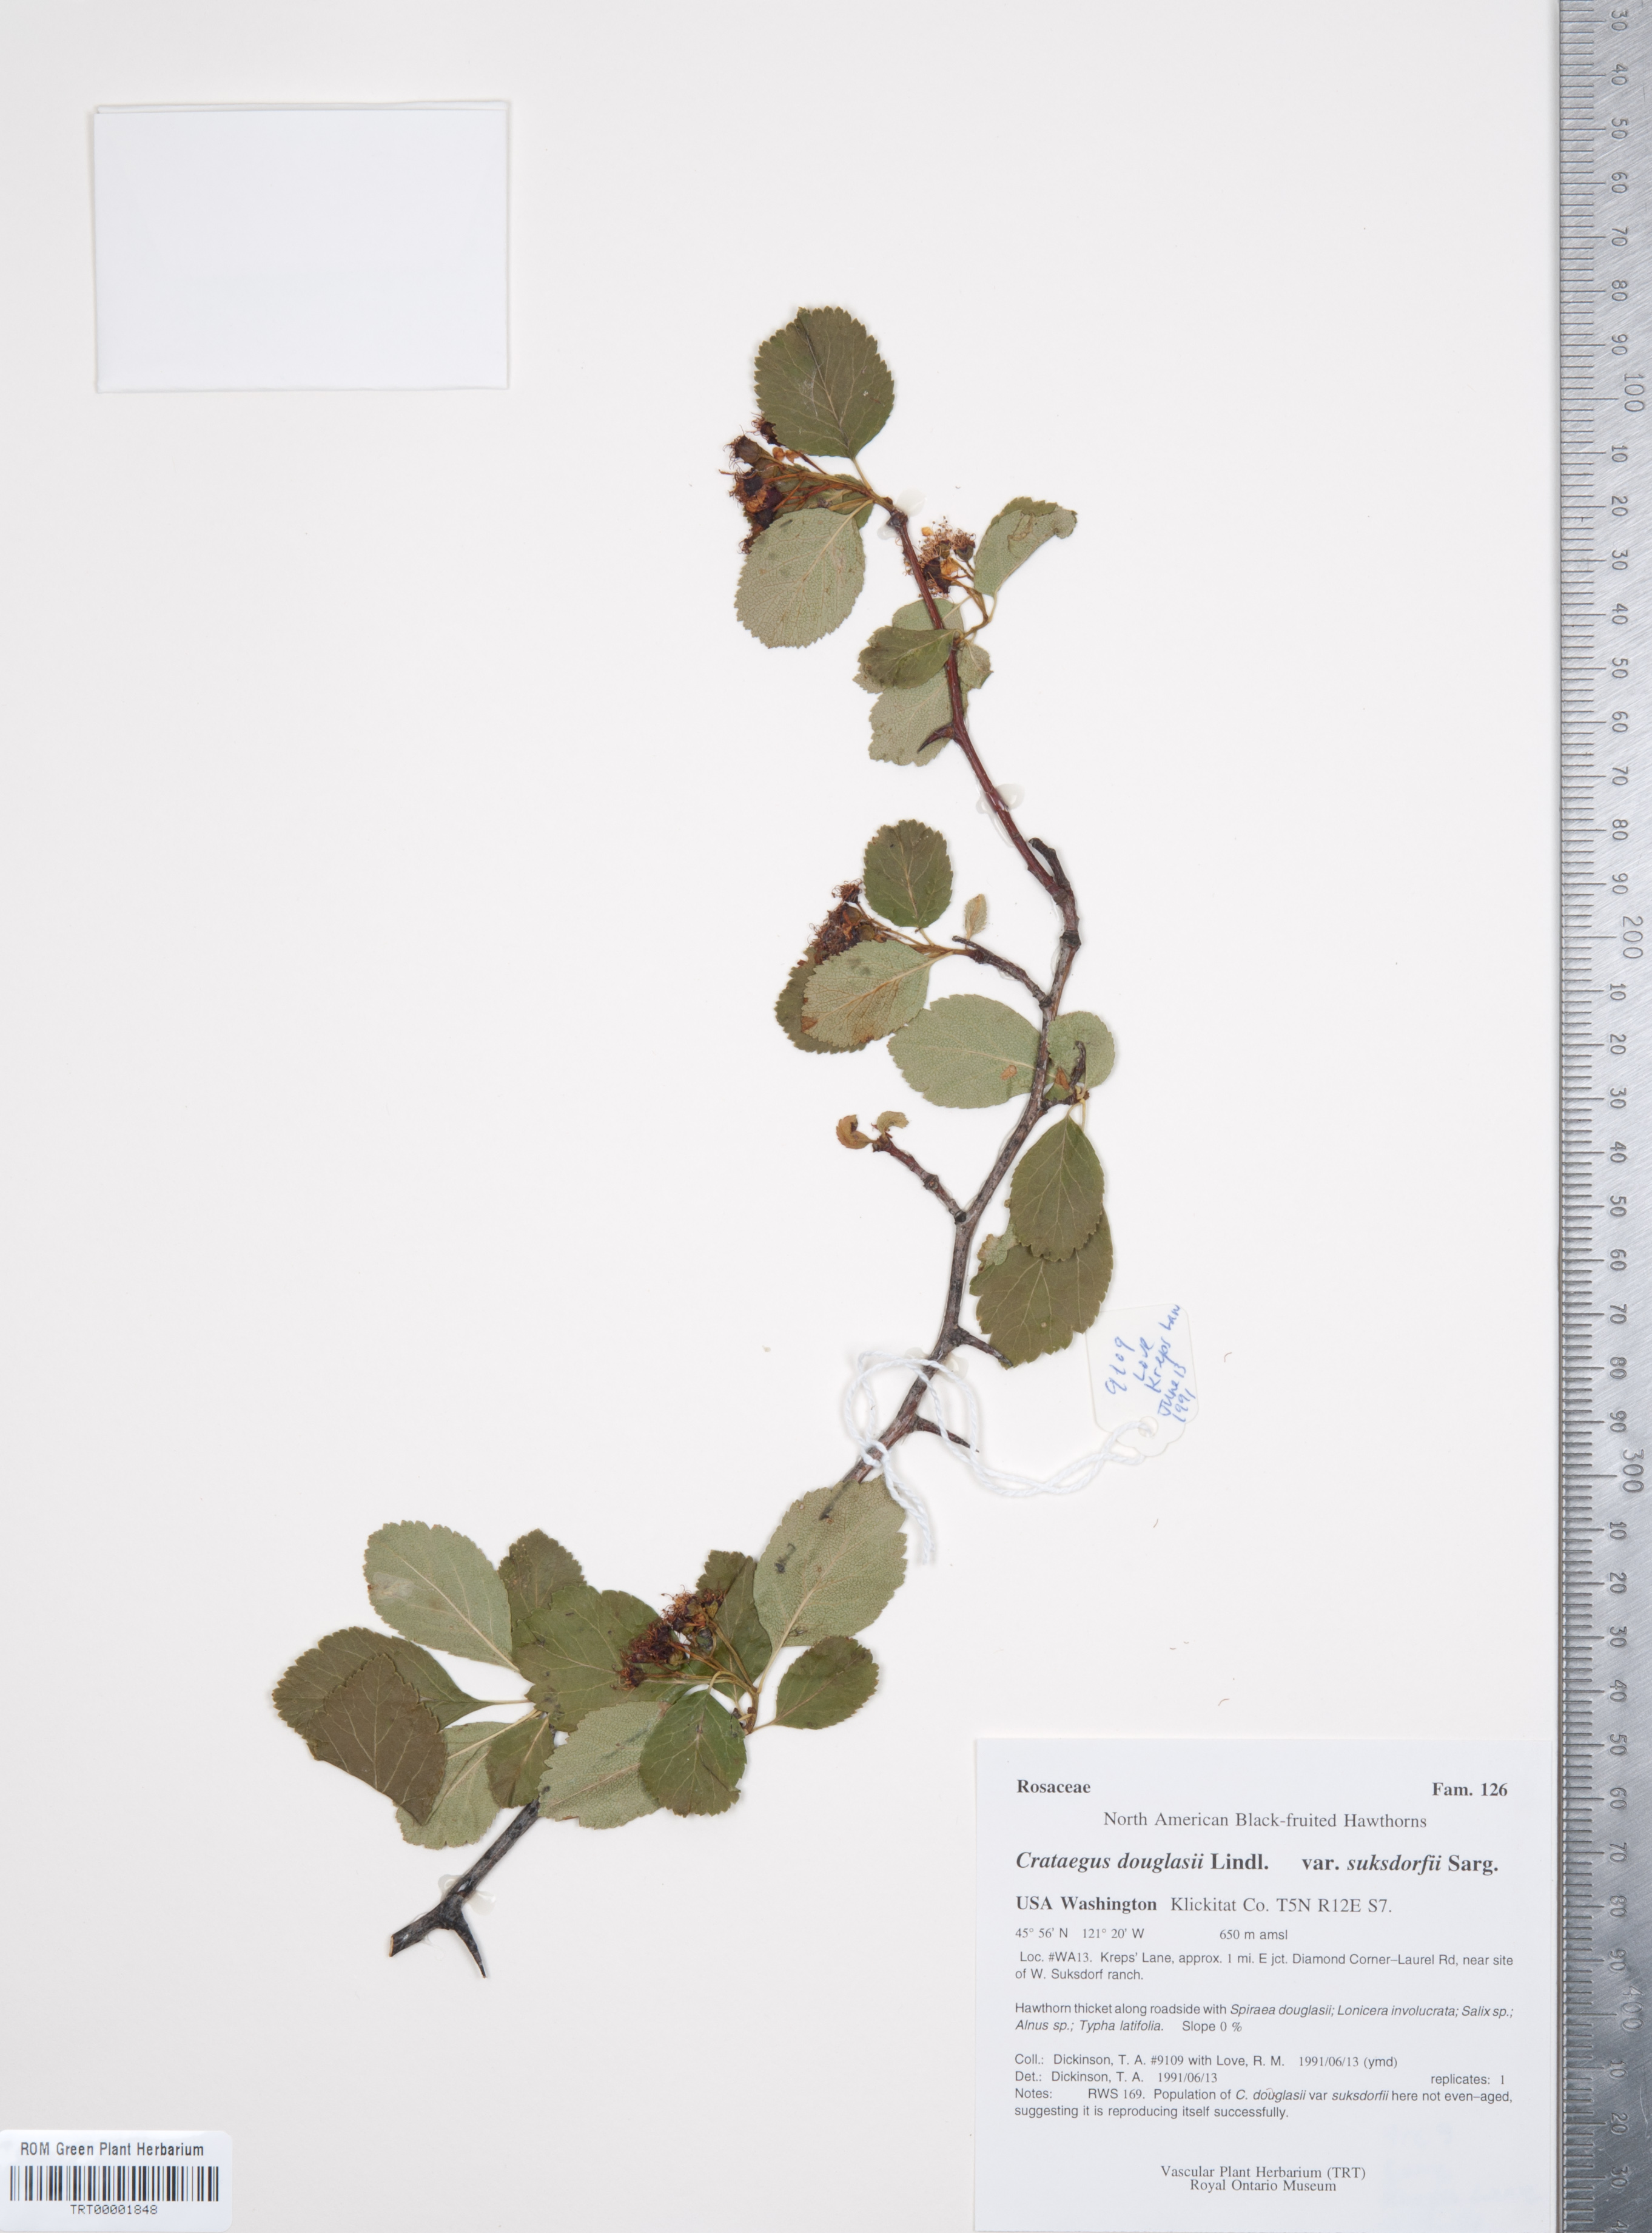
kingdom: Plantae
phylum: Tracheophyta
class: Magnoliopsida
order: Rosales
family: Rosaceae
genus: Crataegus
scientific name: Crataegus gaylussacia
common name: Huckleberry hawthorn
